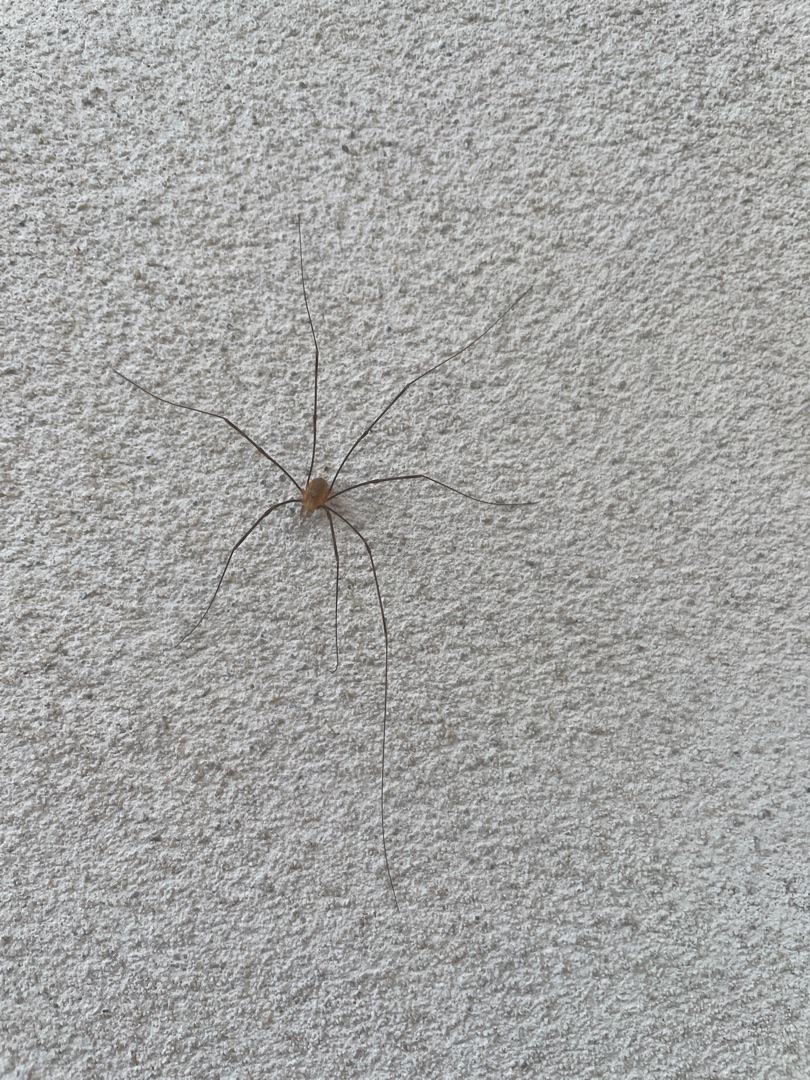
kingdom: Animalia
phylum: Arthropoda
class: Arachnida
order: Opiliones
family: Phalangiidae
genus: Opilio
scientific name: Opilio canestrinii
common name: Orange vægmejer
